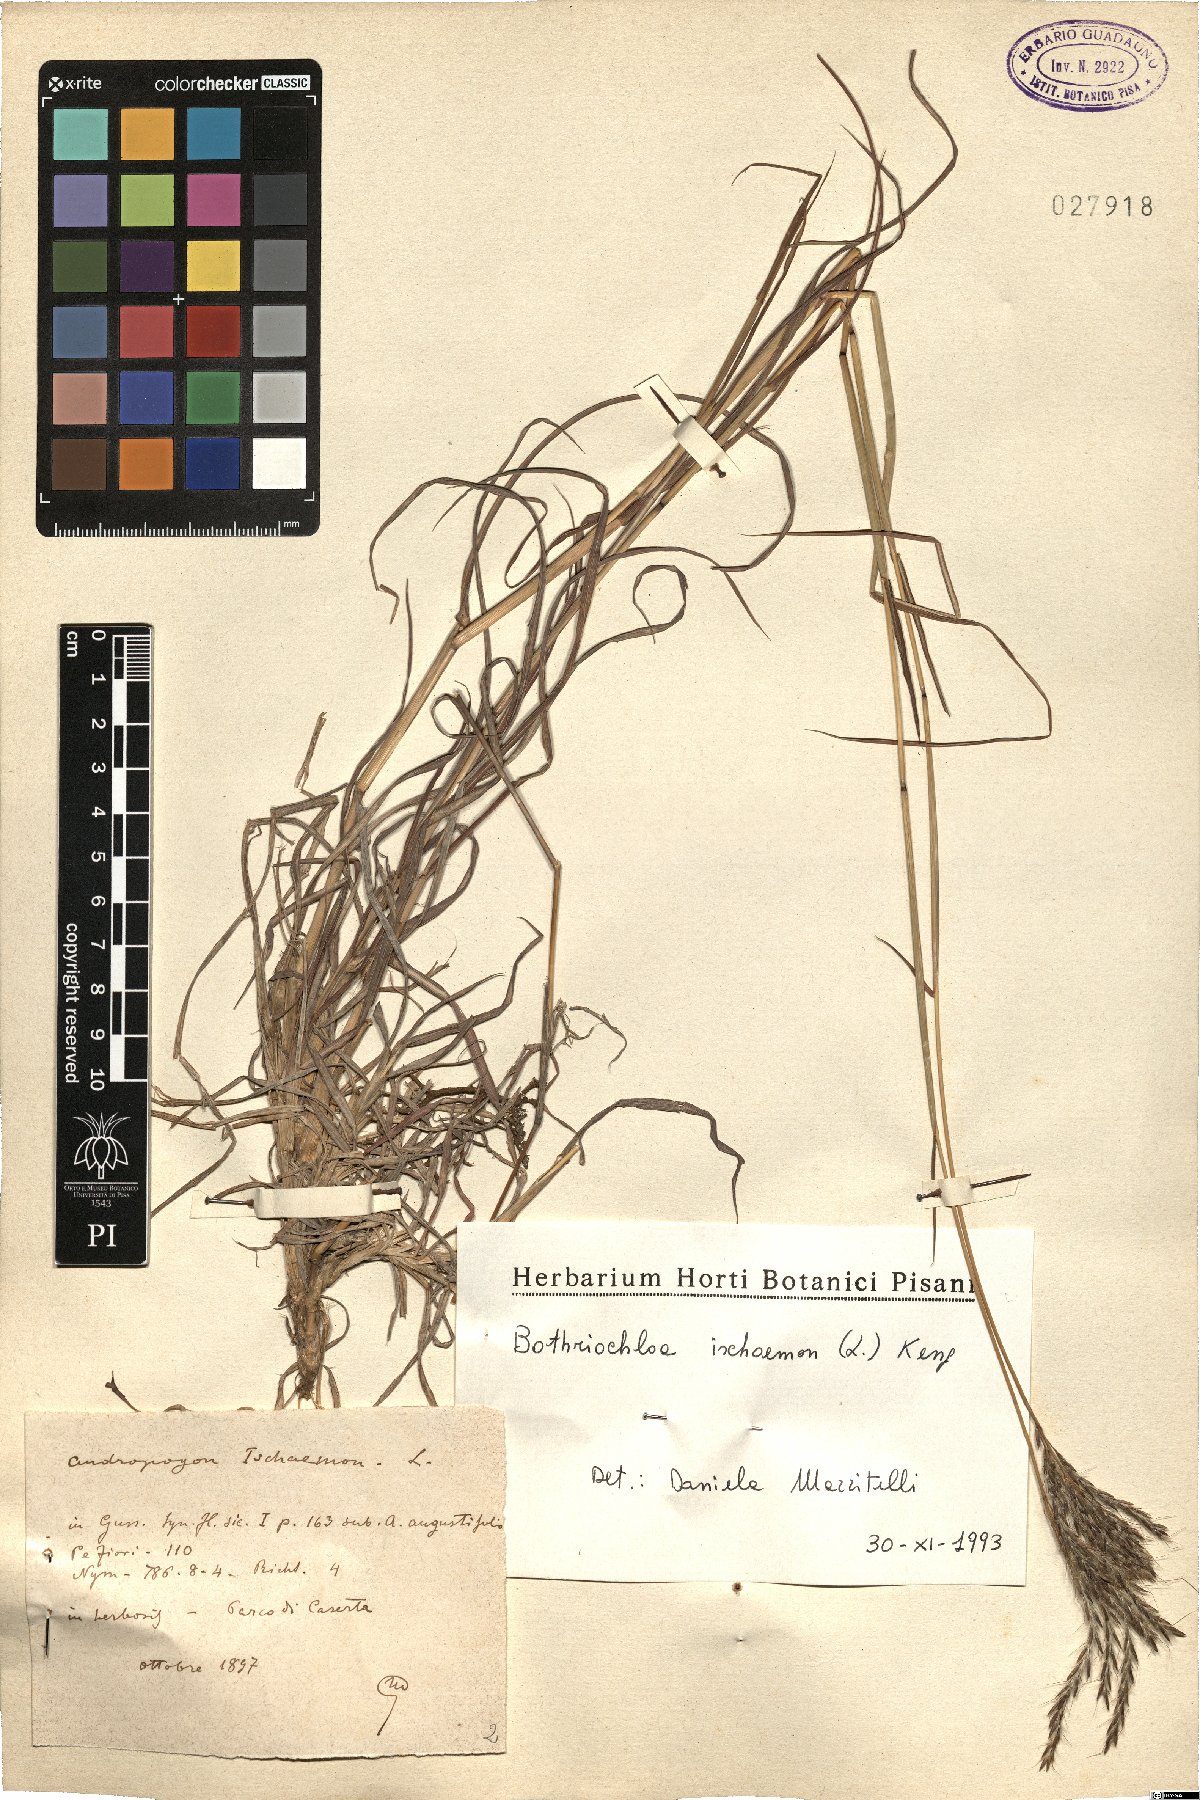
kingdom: Plantae
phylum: Tracheophyta
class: Liliopsida
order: Poales
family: Poaceae
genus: Bothriochloa
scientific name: Bothriochloa ischaemum
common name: Yellow bluestem
